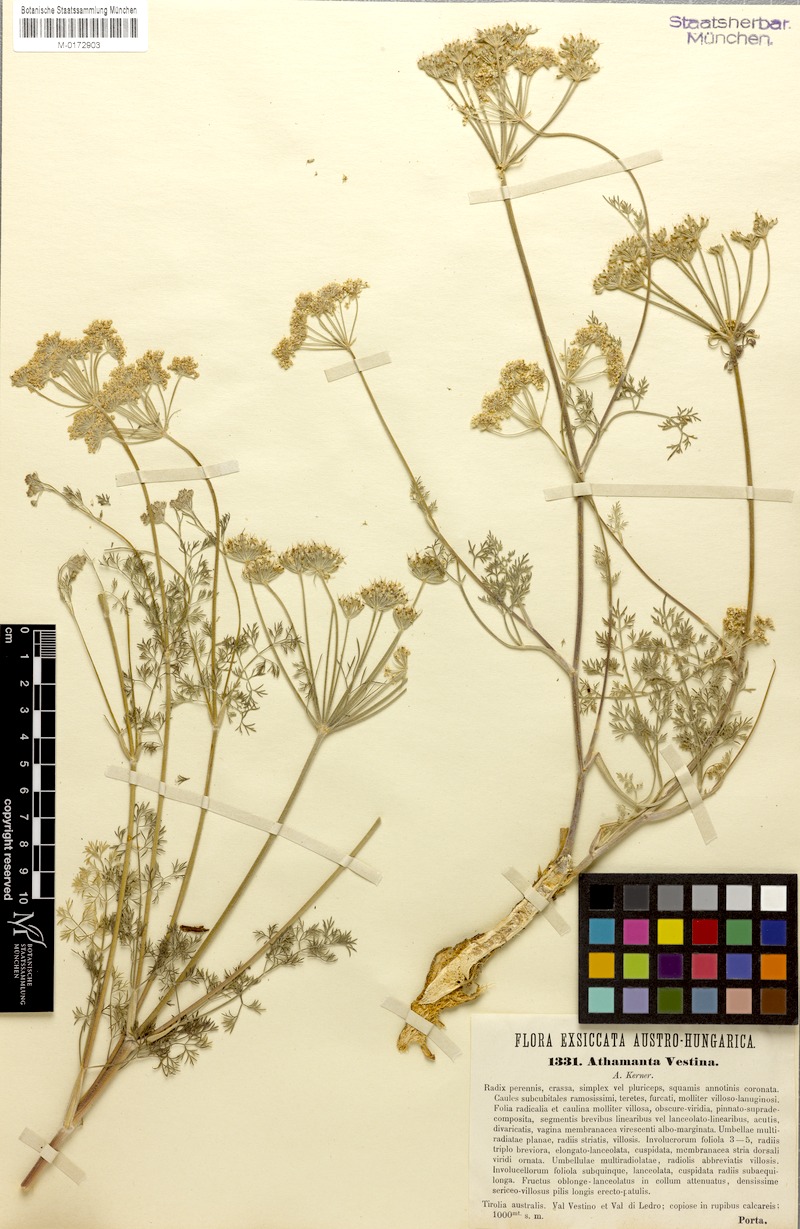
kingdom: Plantae
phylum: Tracheophyta
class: Magnoliopsida
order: Apiales
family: Apiaceae
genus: Athamanta
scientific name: Athamanta cretensis
